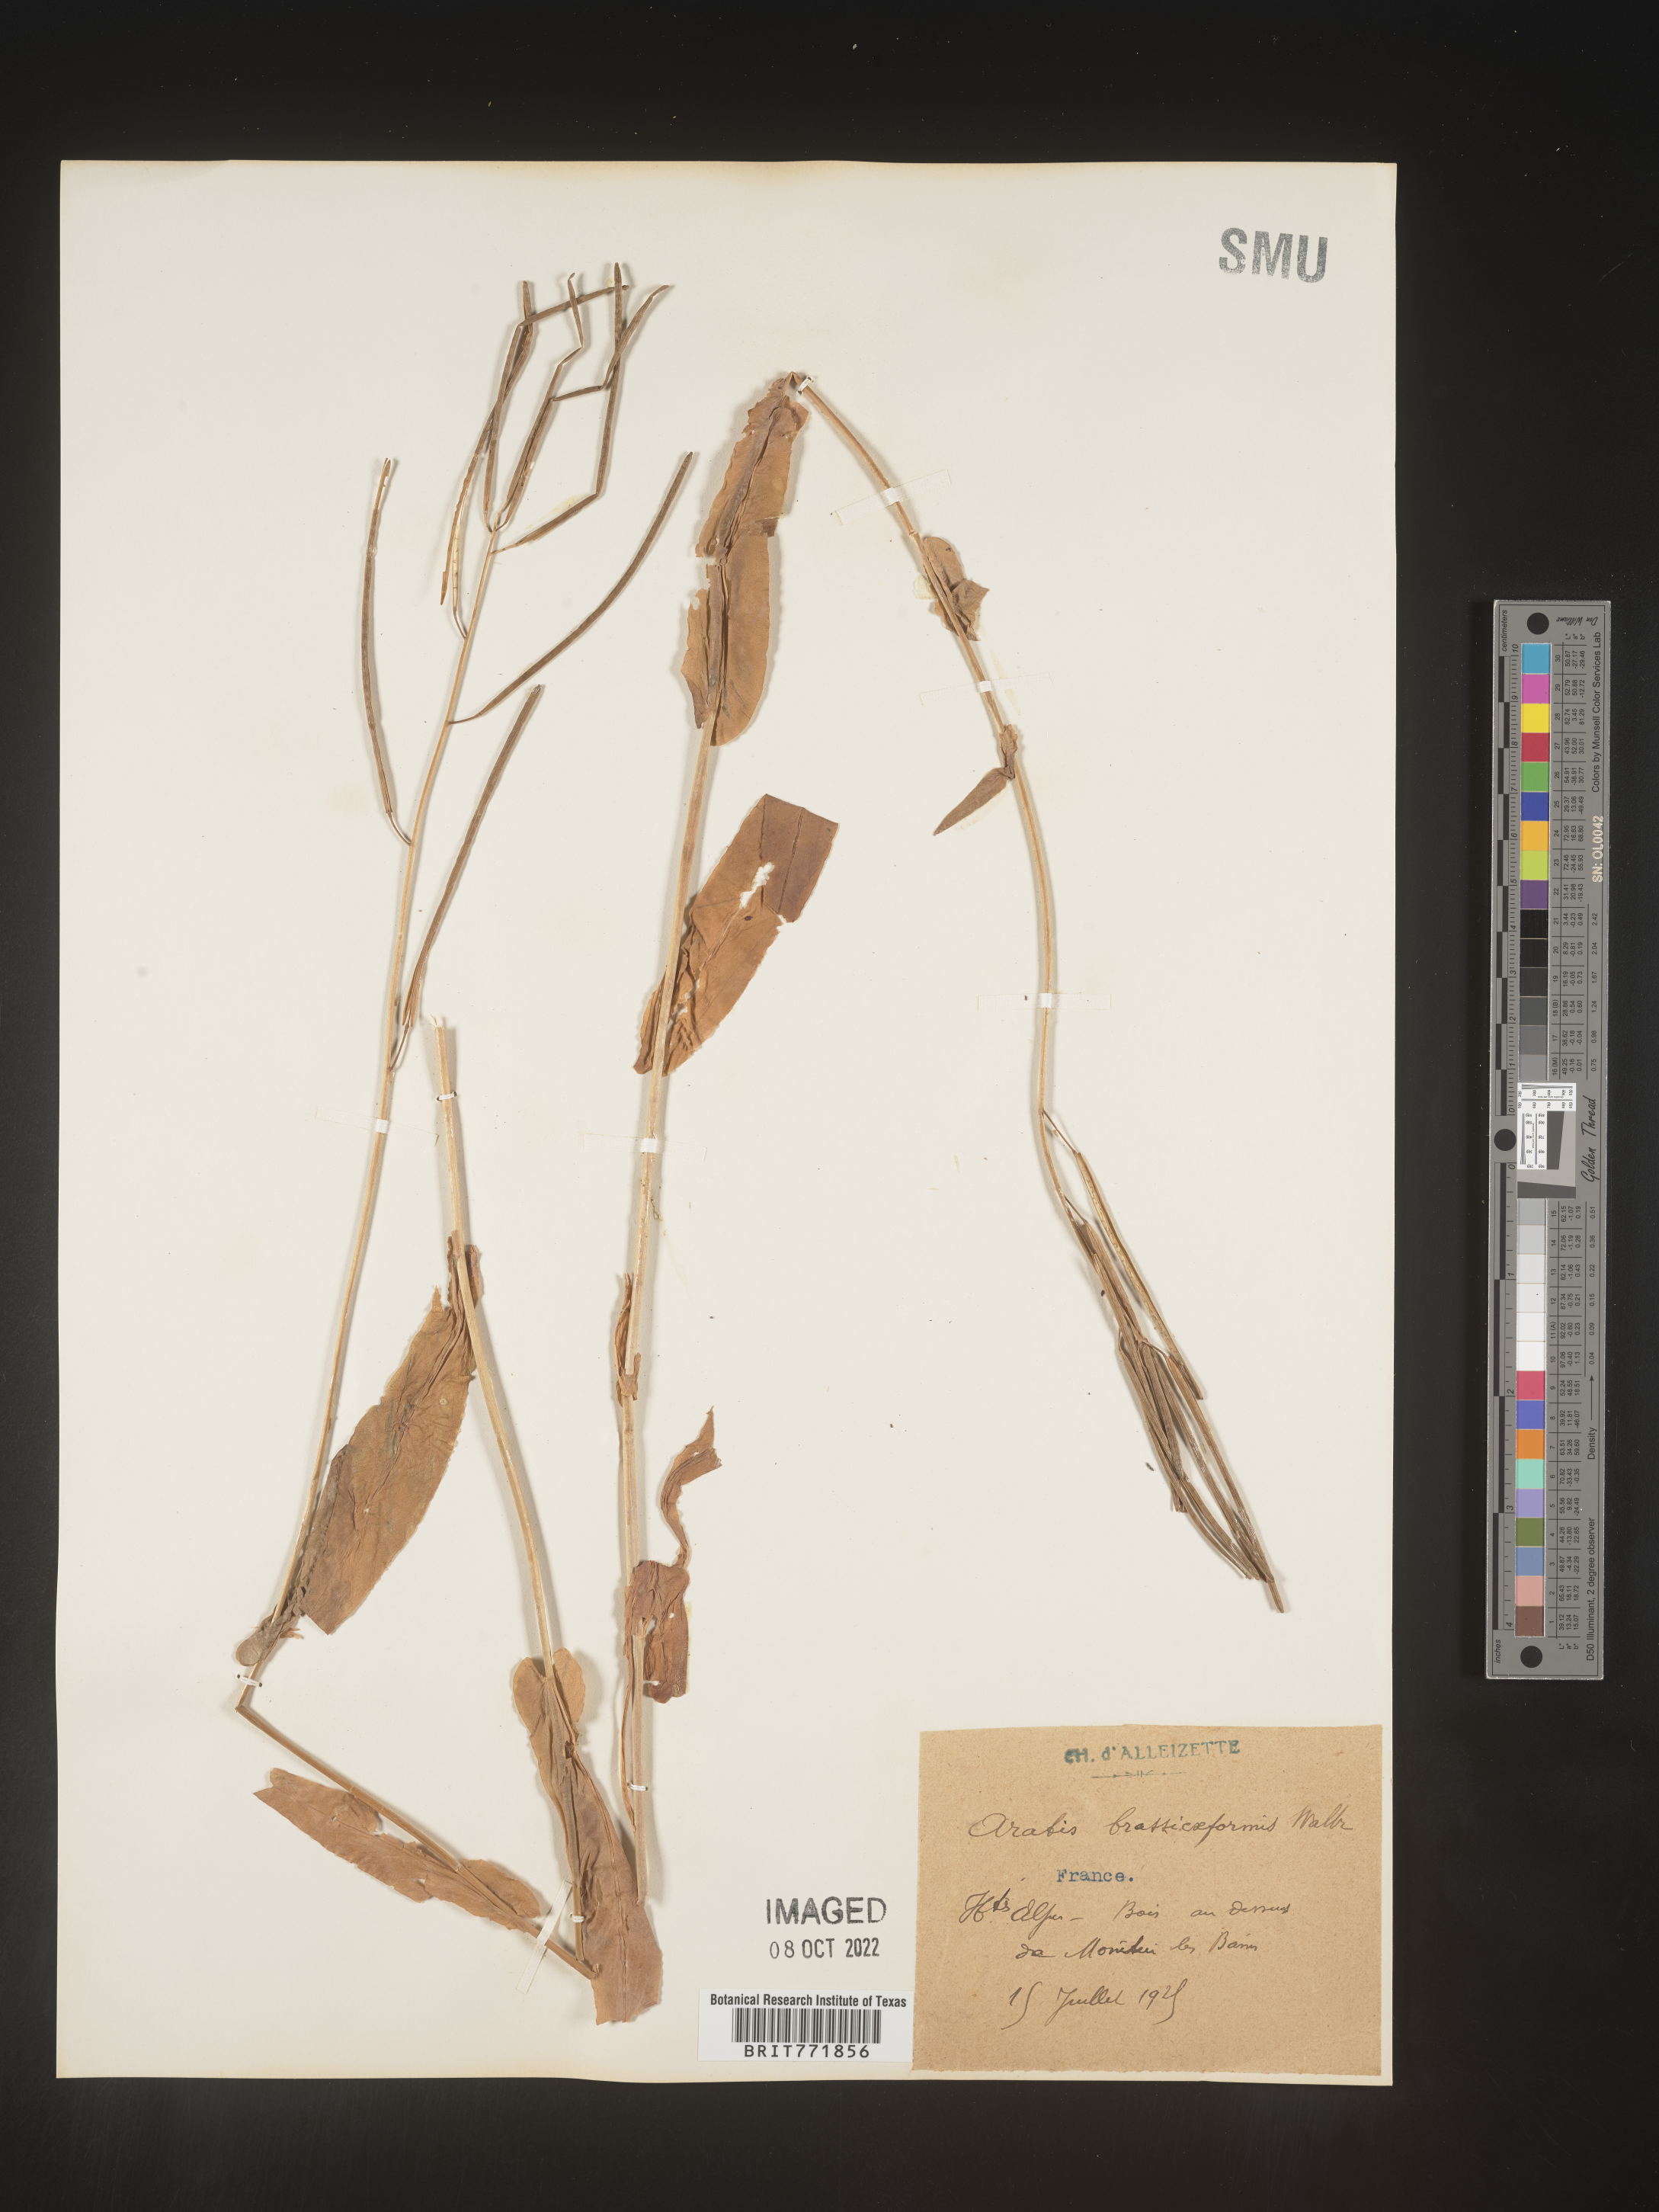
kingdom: Plantae
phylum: Tracheophyta
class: Magnoliopsida
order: Brassicales
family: Brassicaceae
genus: Arabis
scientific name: Arabis
